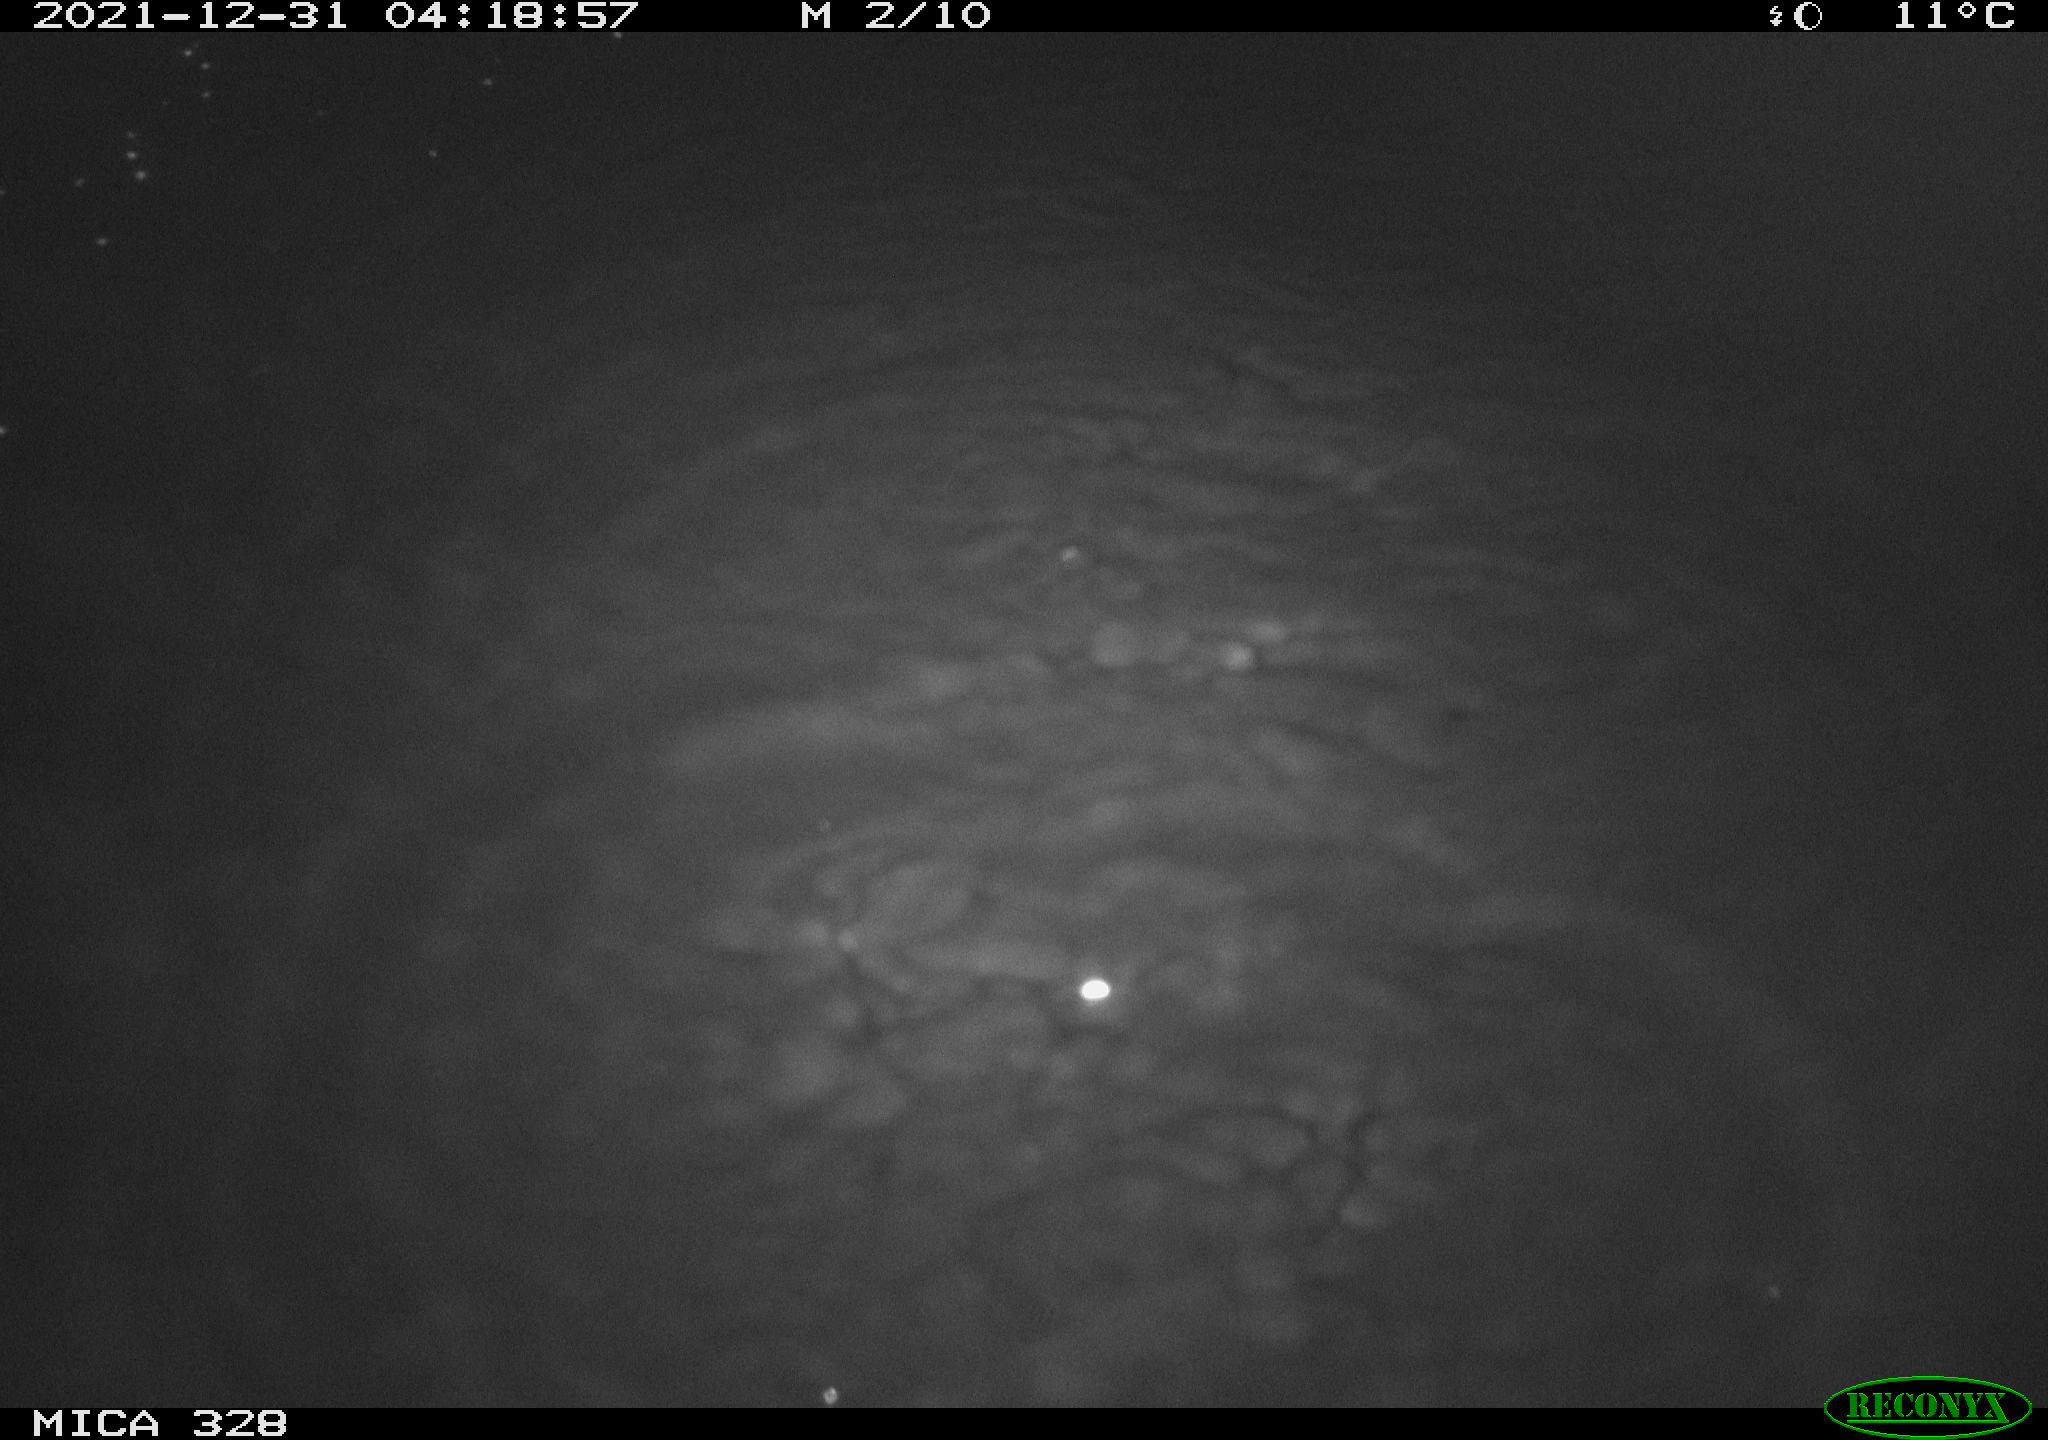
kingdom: Animalia
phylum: Chordata
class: Mammalia
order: Rodentia
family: Cricetidae
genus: Ondatra
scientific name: Ondatra zibethicus
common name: Muskrat
